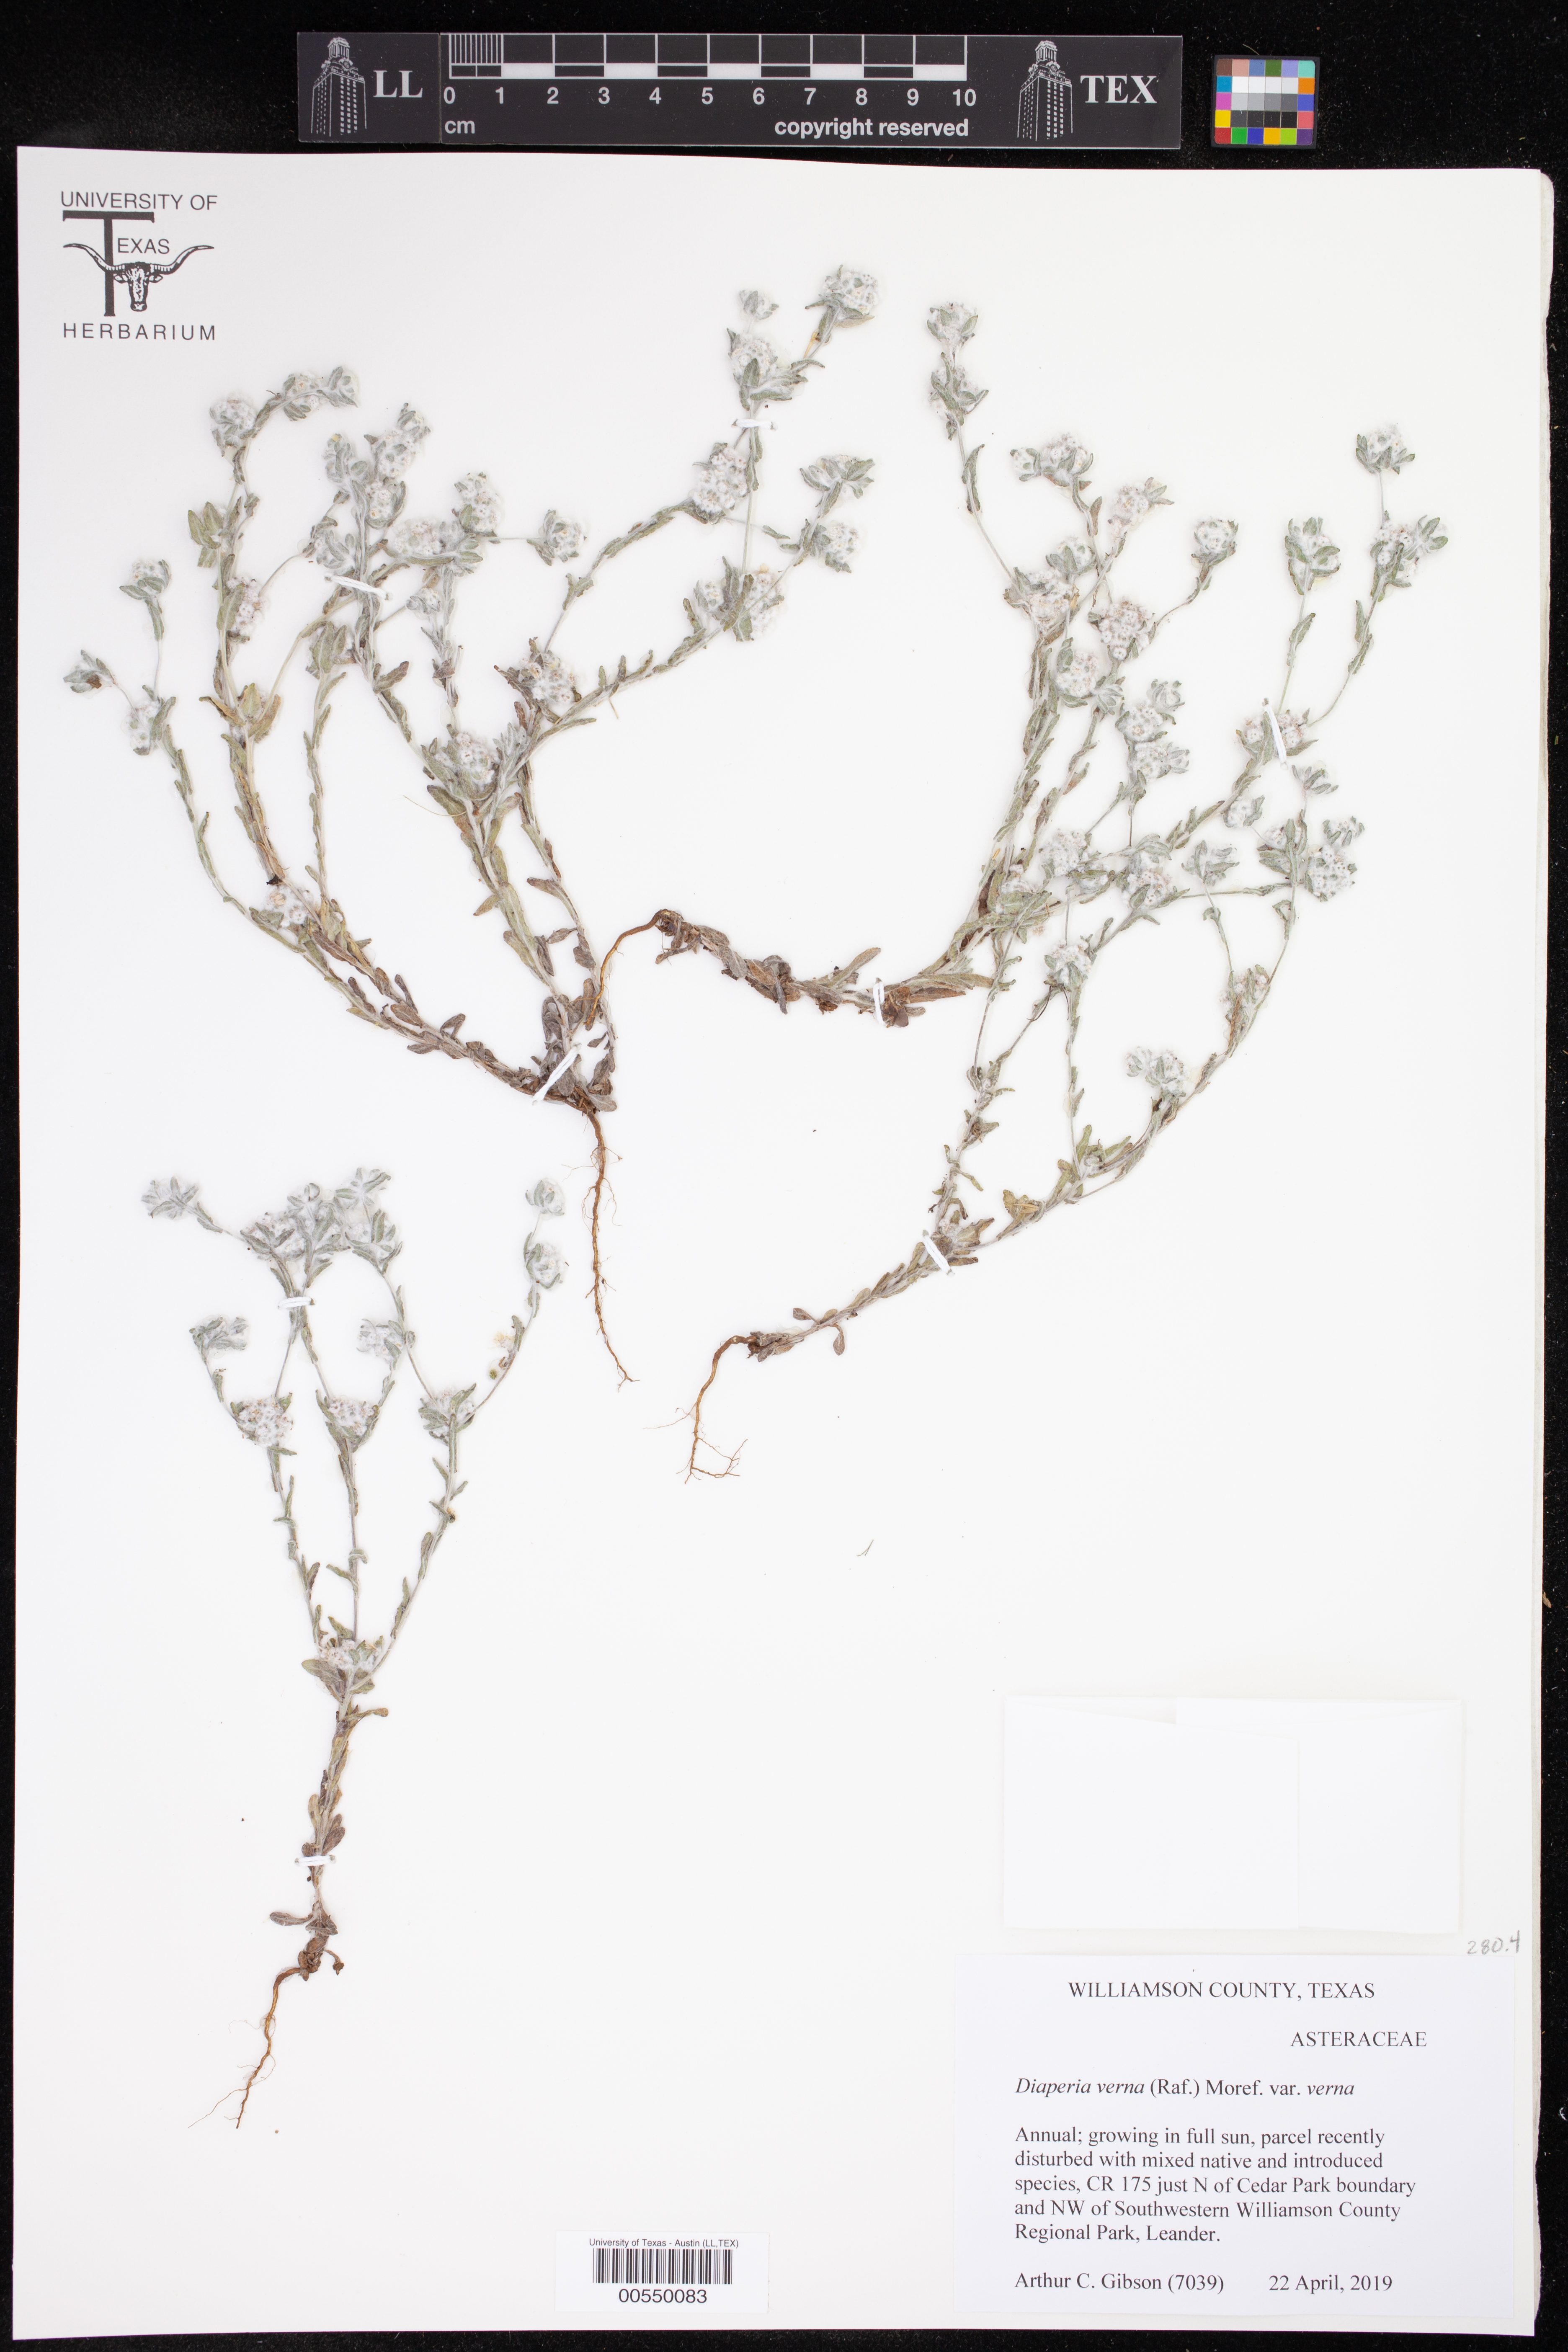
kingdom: Plantae
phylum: Tracheophyta
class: Magnoliopsida
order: Asterales
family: Asteraceae
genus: Diaperia
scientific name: Diaperia verna
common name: Many-stem rabbit-tobacco
